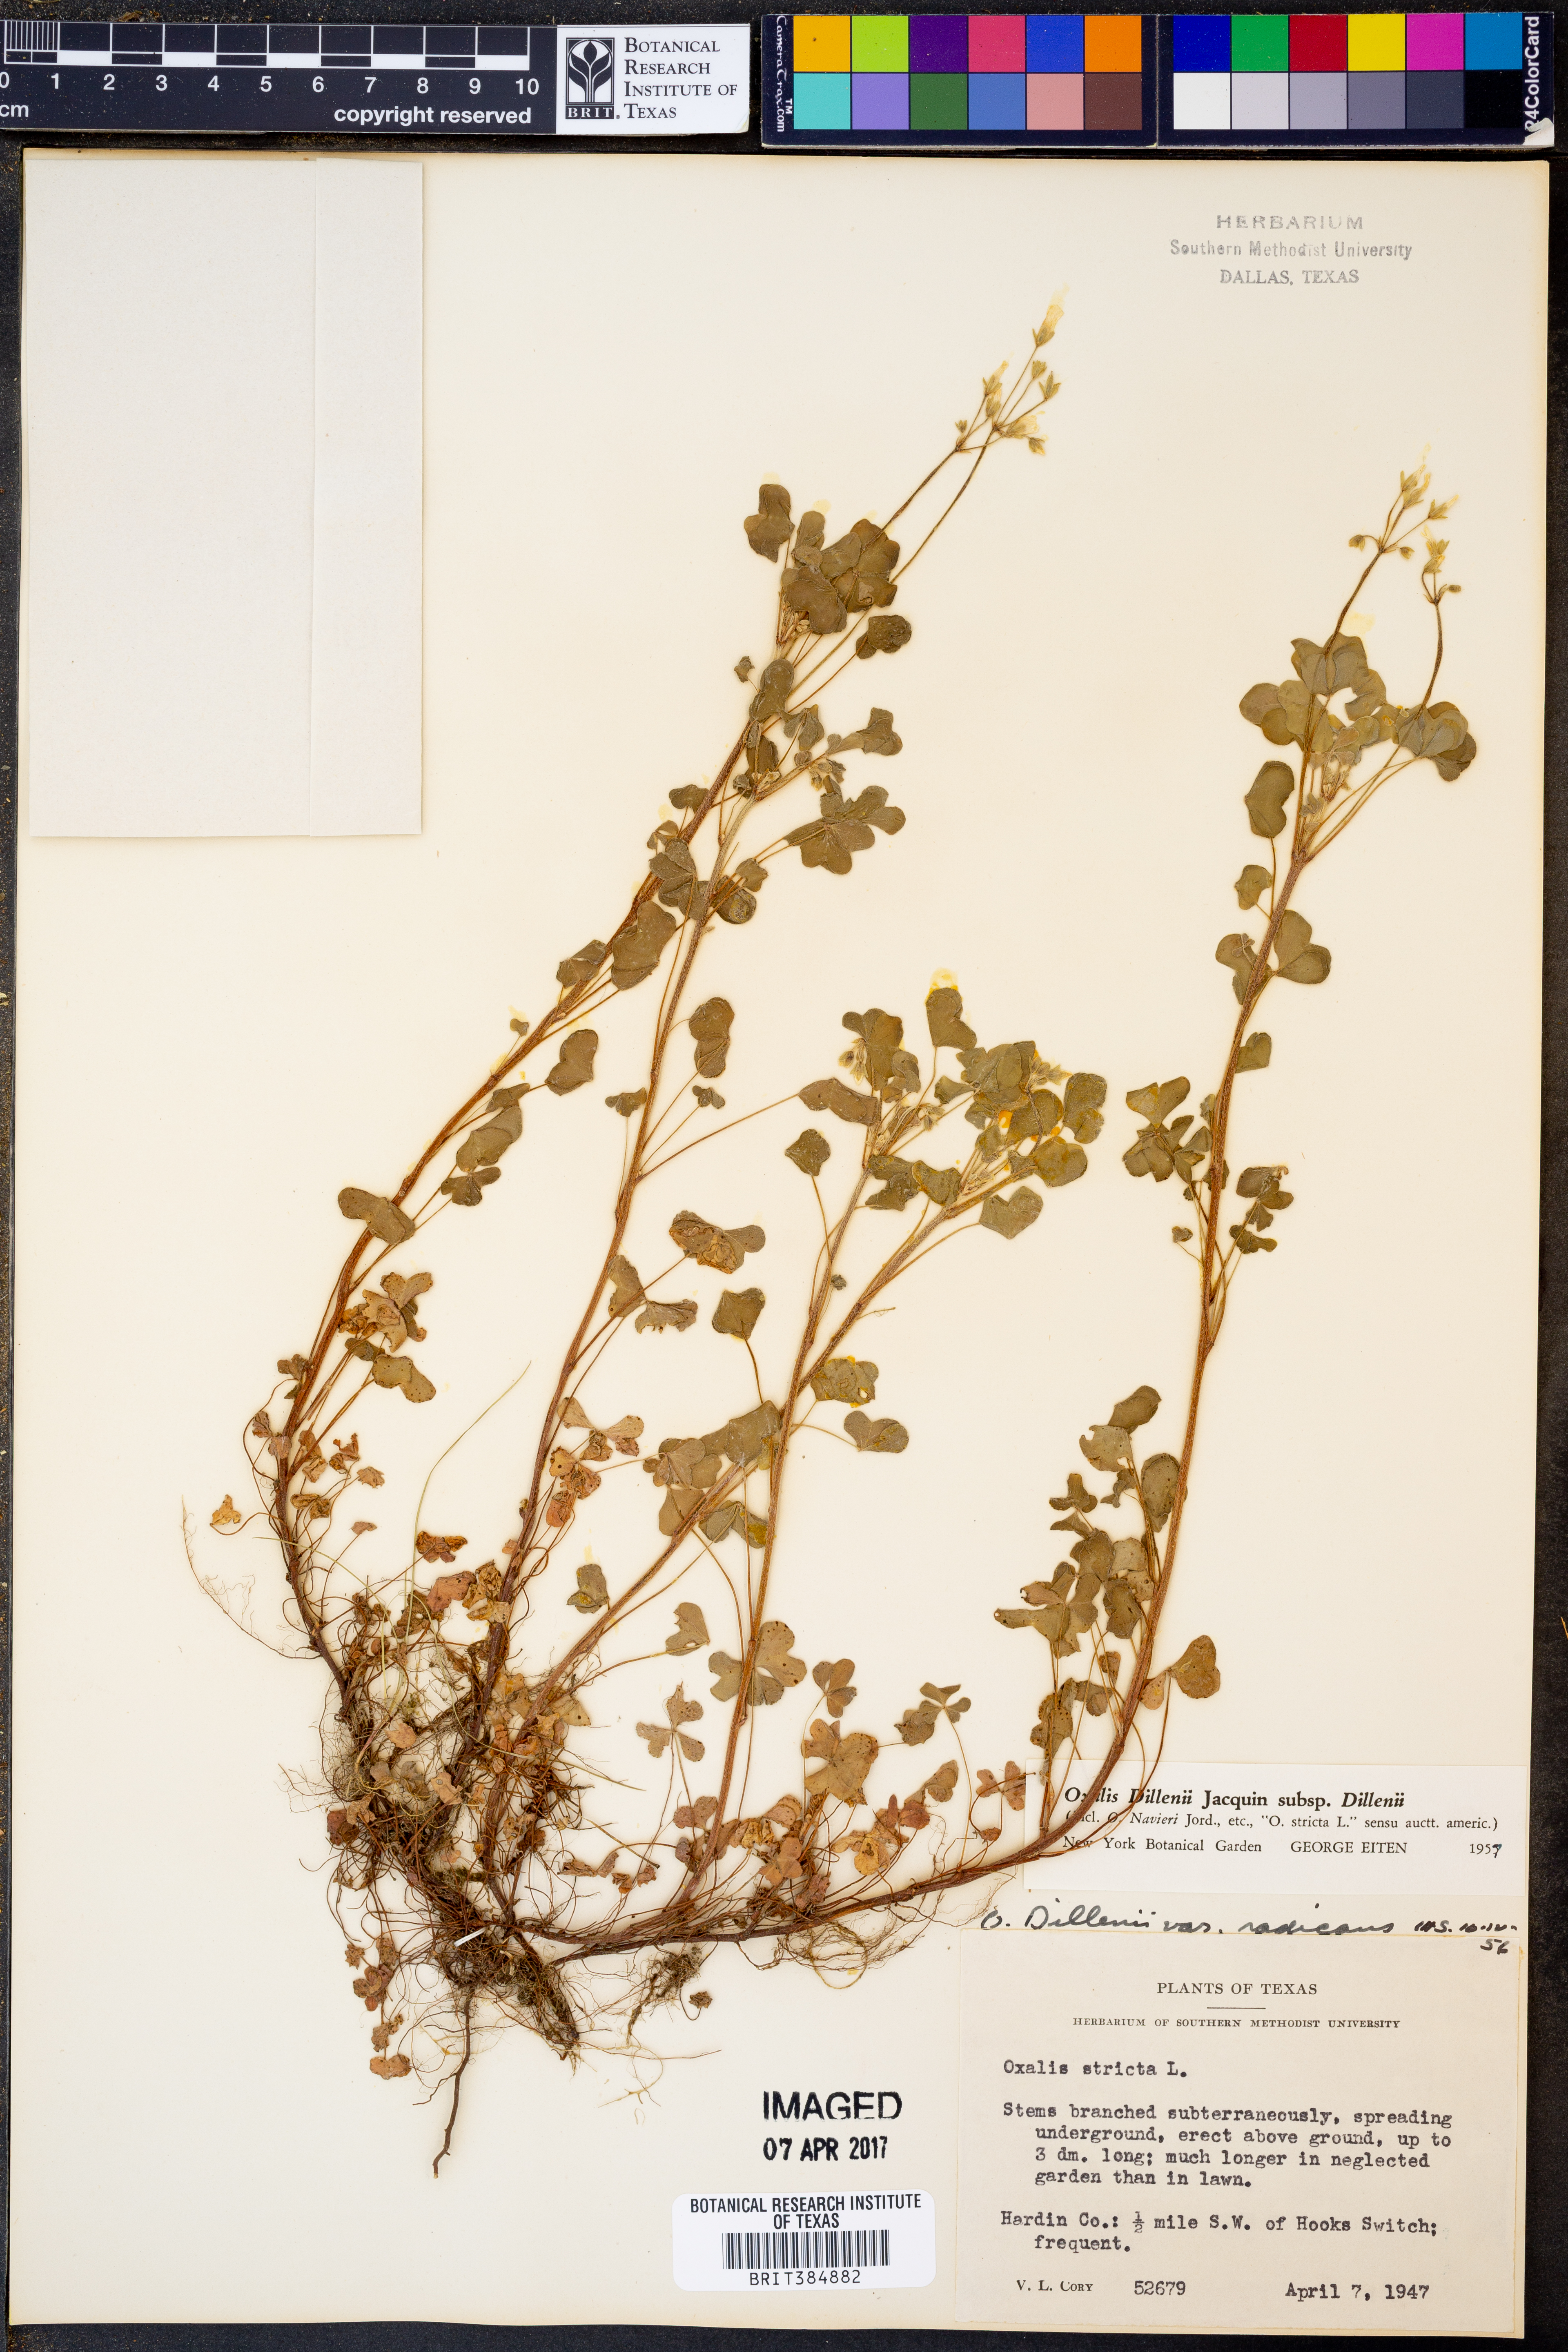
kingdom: Plantae
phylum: Tracheophyta
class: Magnoliopsida
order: Oxalidales
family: Oxalidaceae
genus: Oxalis
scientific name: Oxalis dillenii
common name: Sussex yellow-sorrel
